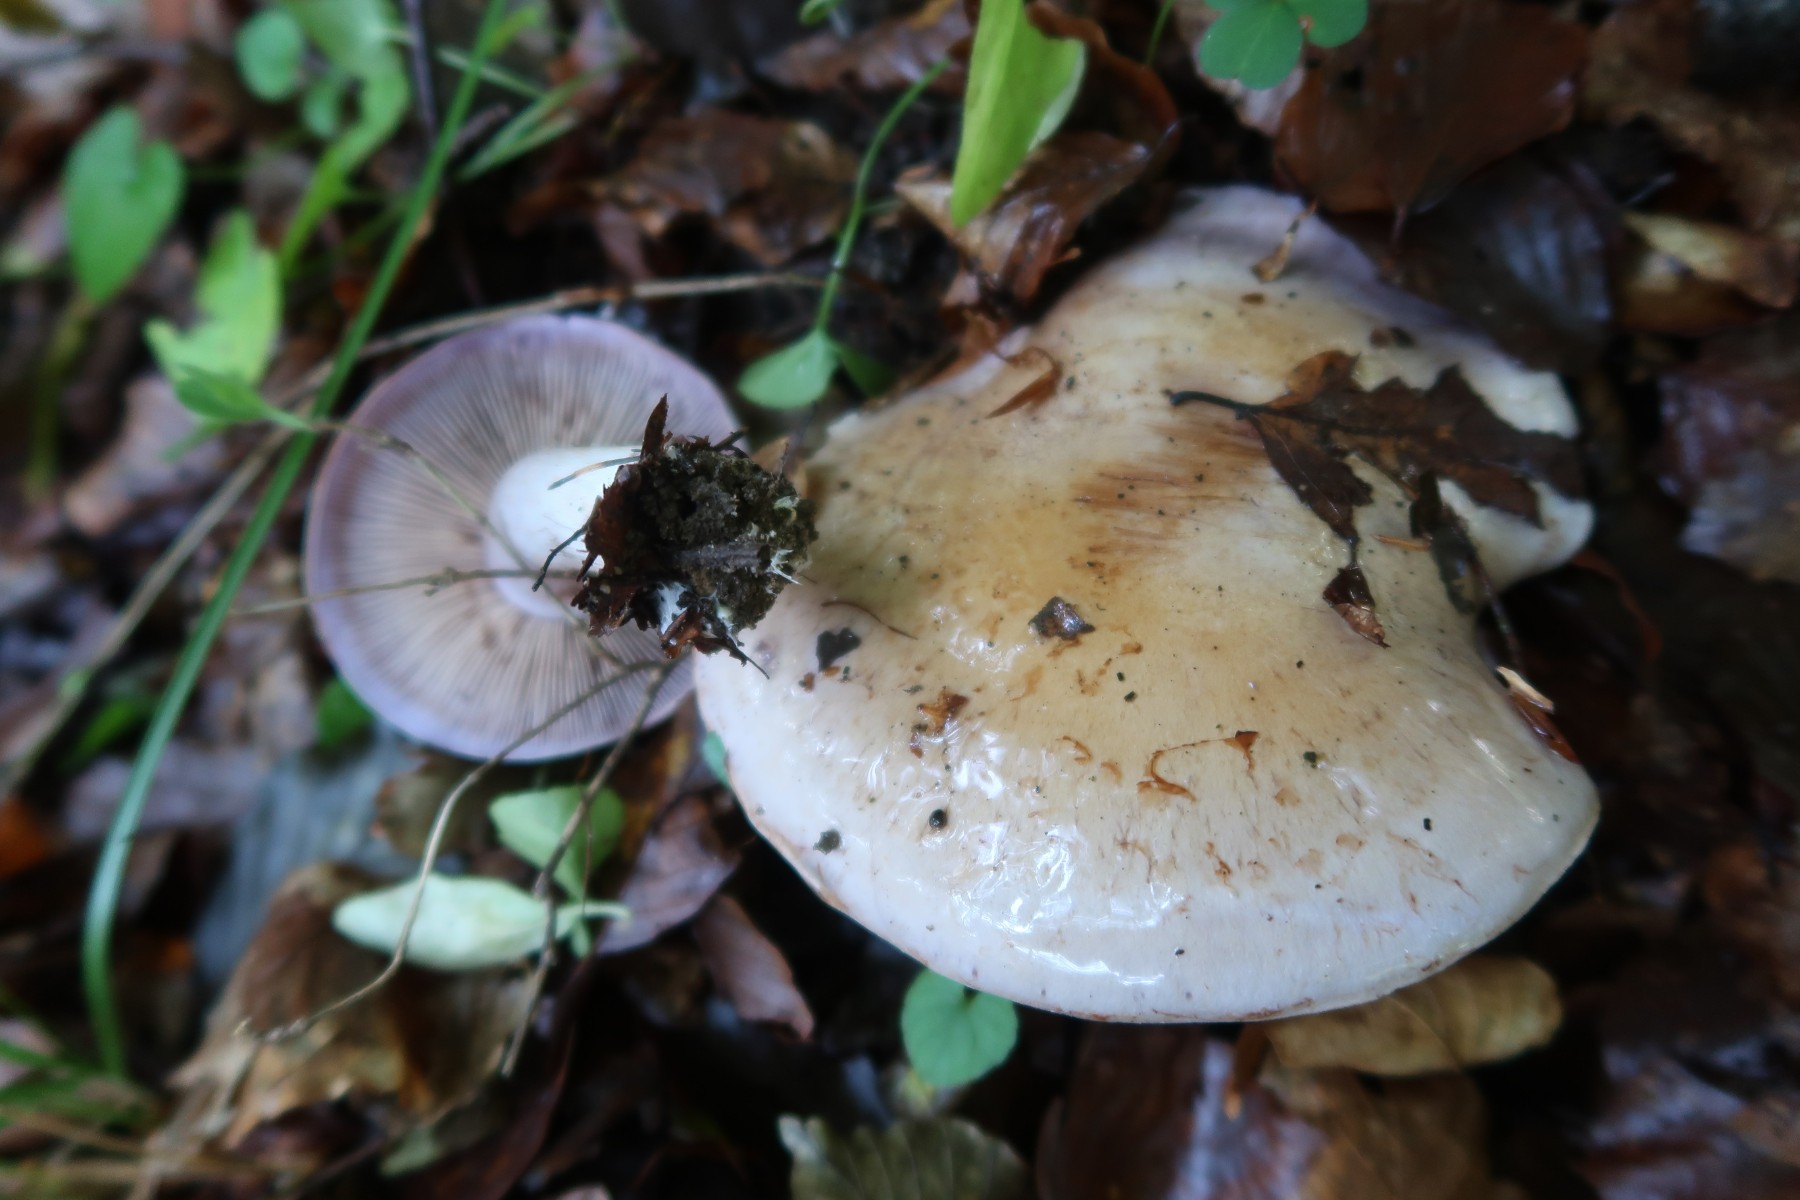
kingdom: Fungi
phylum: Basidiomycota
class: Agaricomycetes
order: Agaricales
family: Cortinariaceae
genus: Cortinarius
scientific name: Cortinarius largus
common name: violetrandet slørhat
